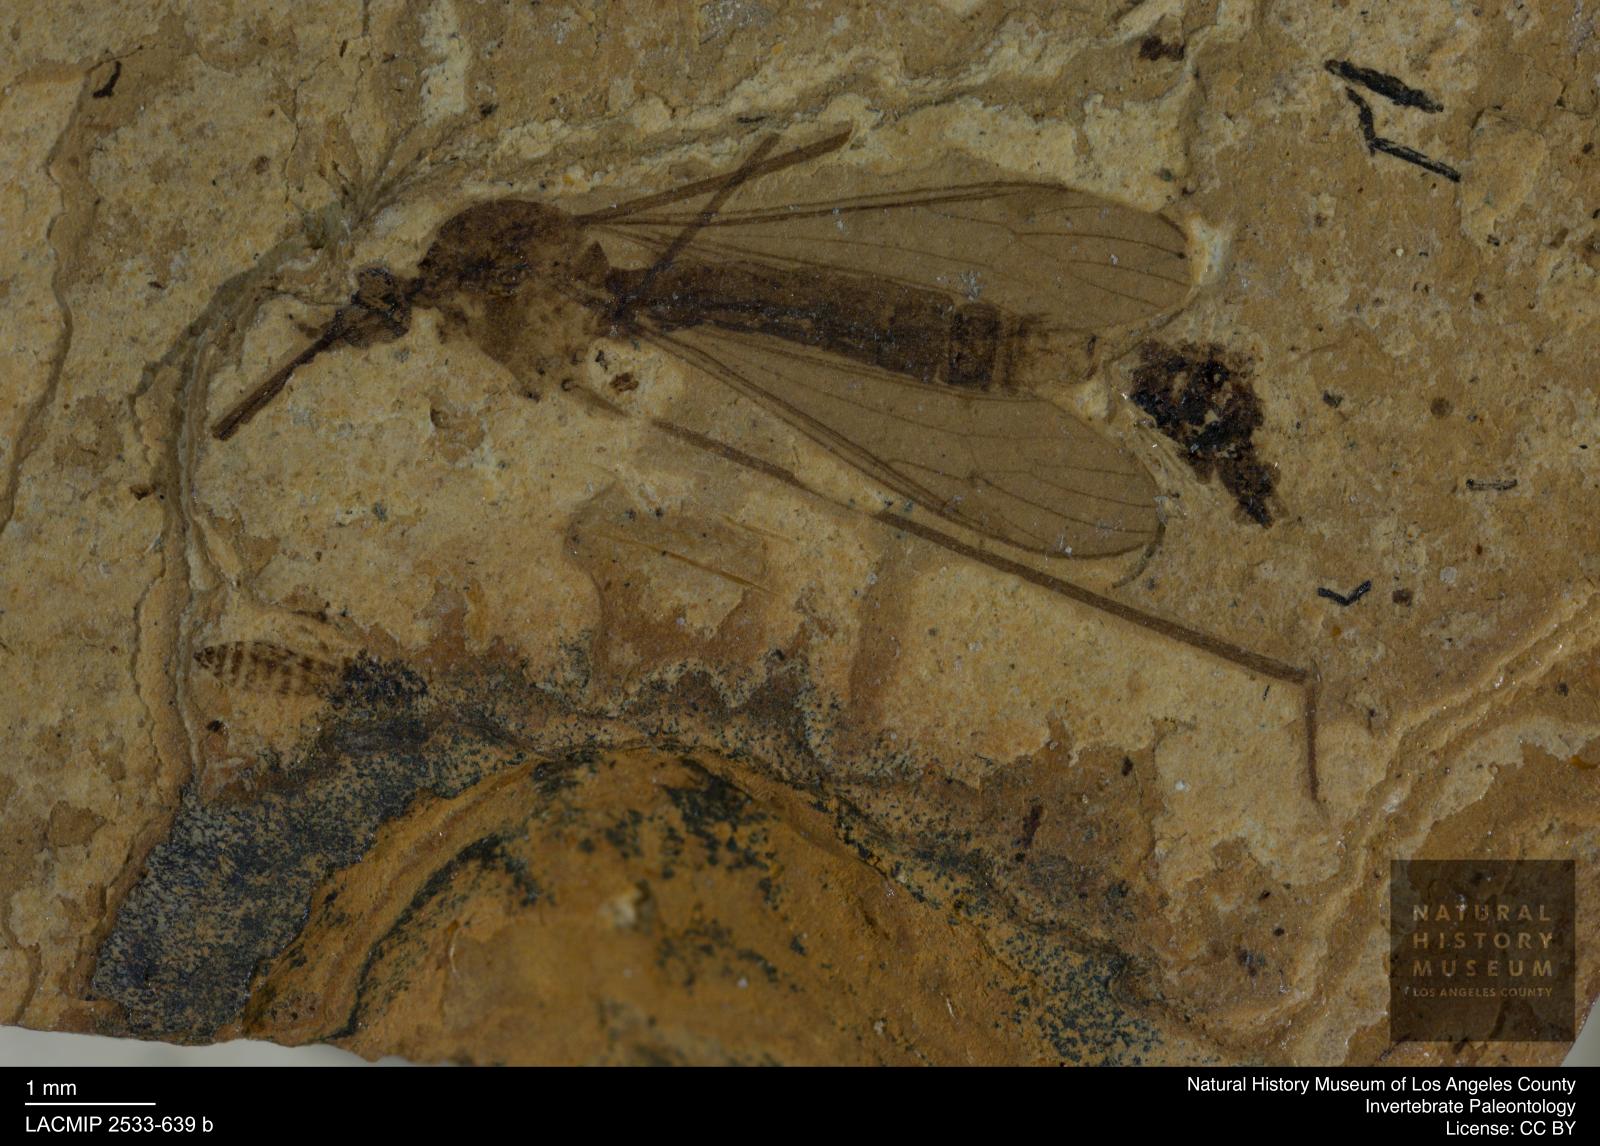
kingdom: Animalia
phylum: Arthropoda
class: Insecta
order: Diptera
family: Limoniidae
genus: Helius
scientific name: Helius weigandi
